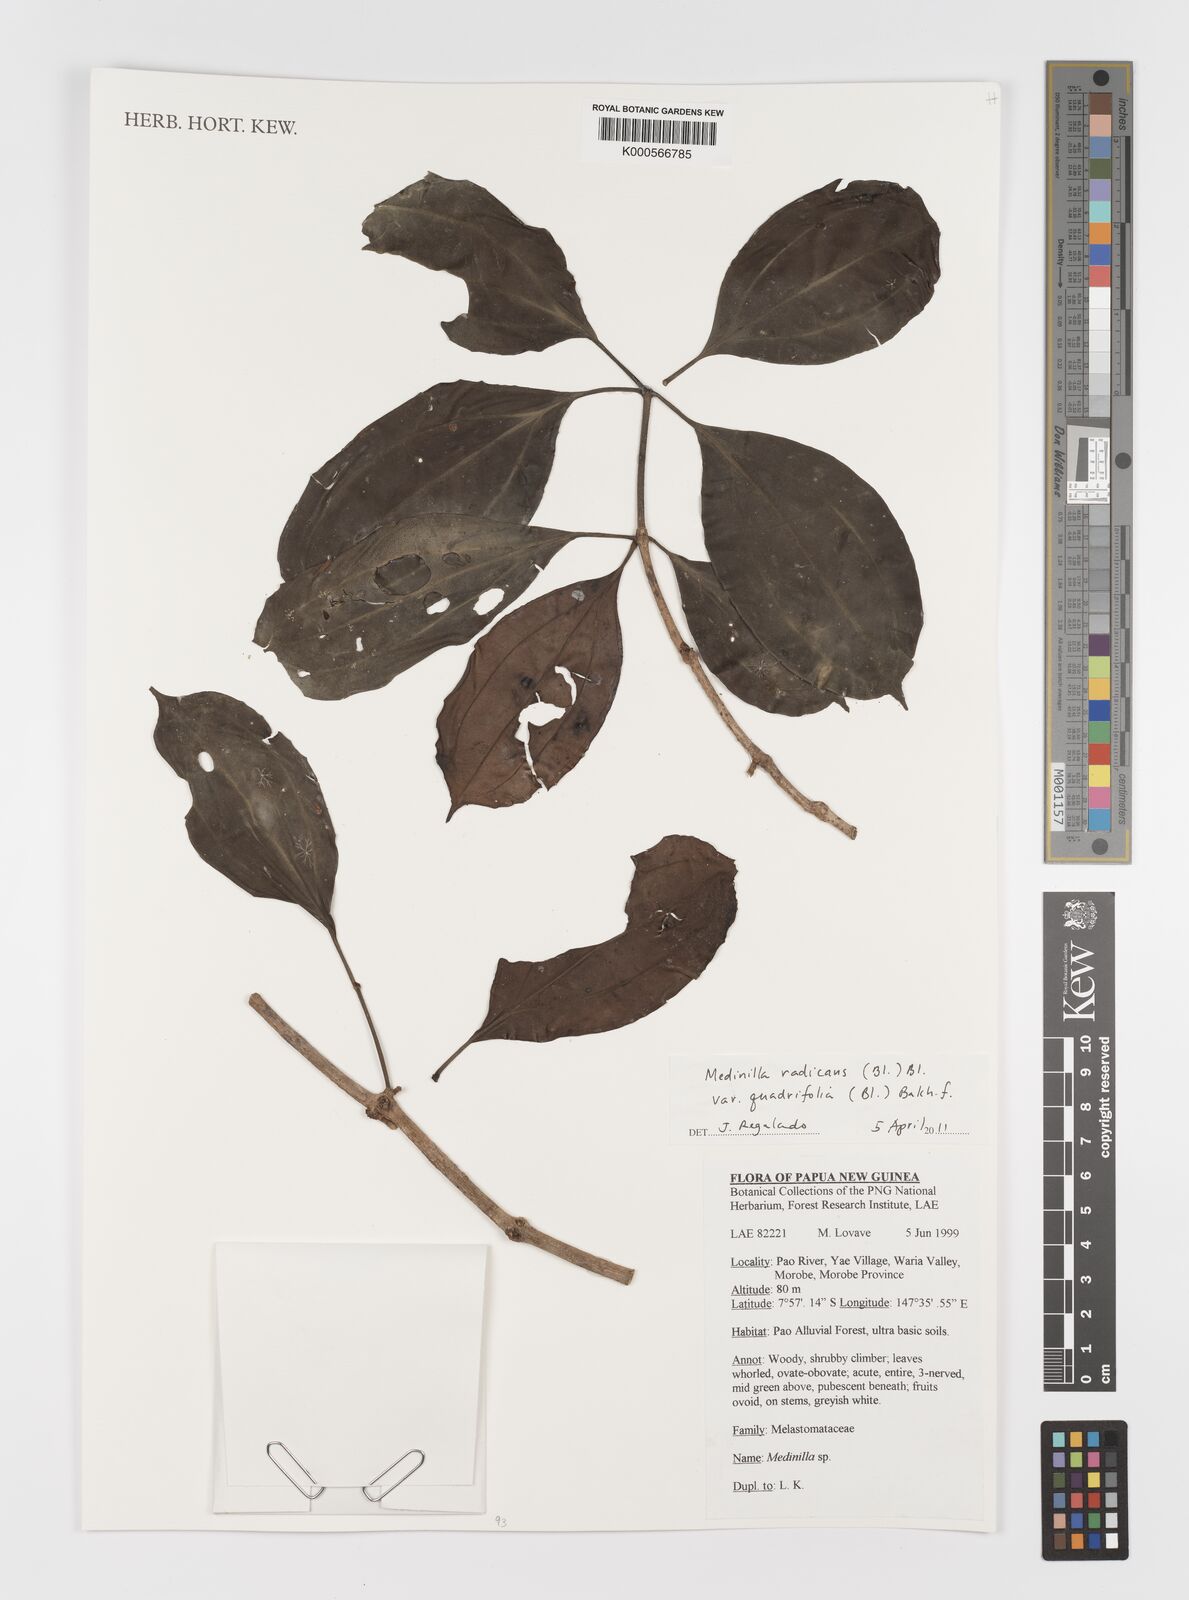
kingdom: Plantae
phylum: Tracheophyta
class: Magnoliopsida
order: Myrtales
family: Melastomataceae
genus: Medinilla
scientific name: Medinilla radicans
